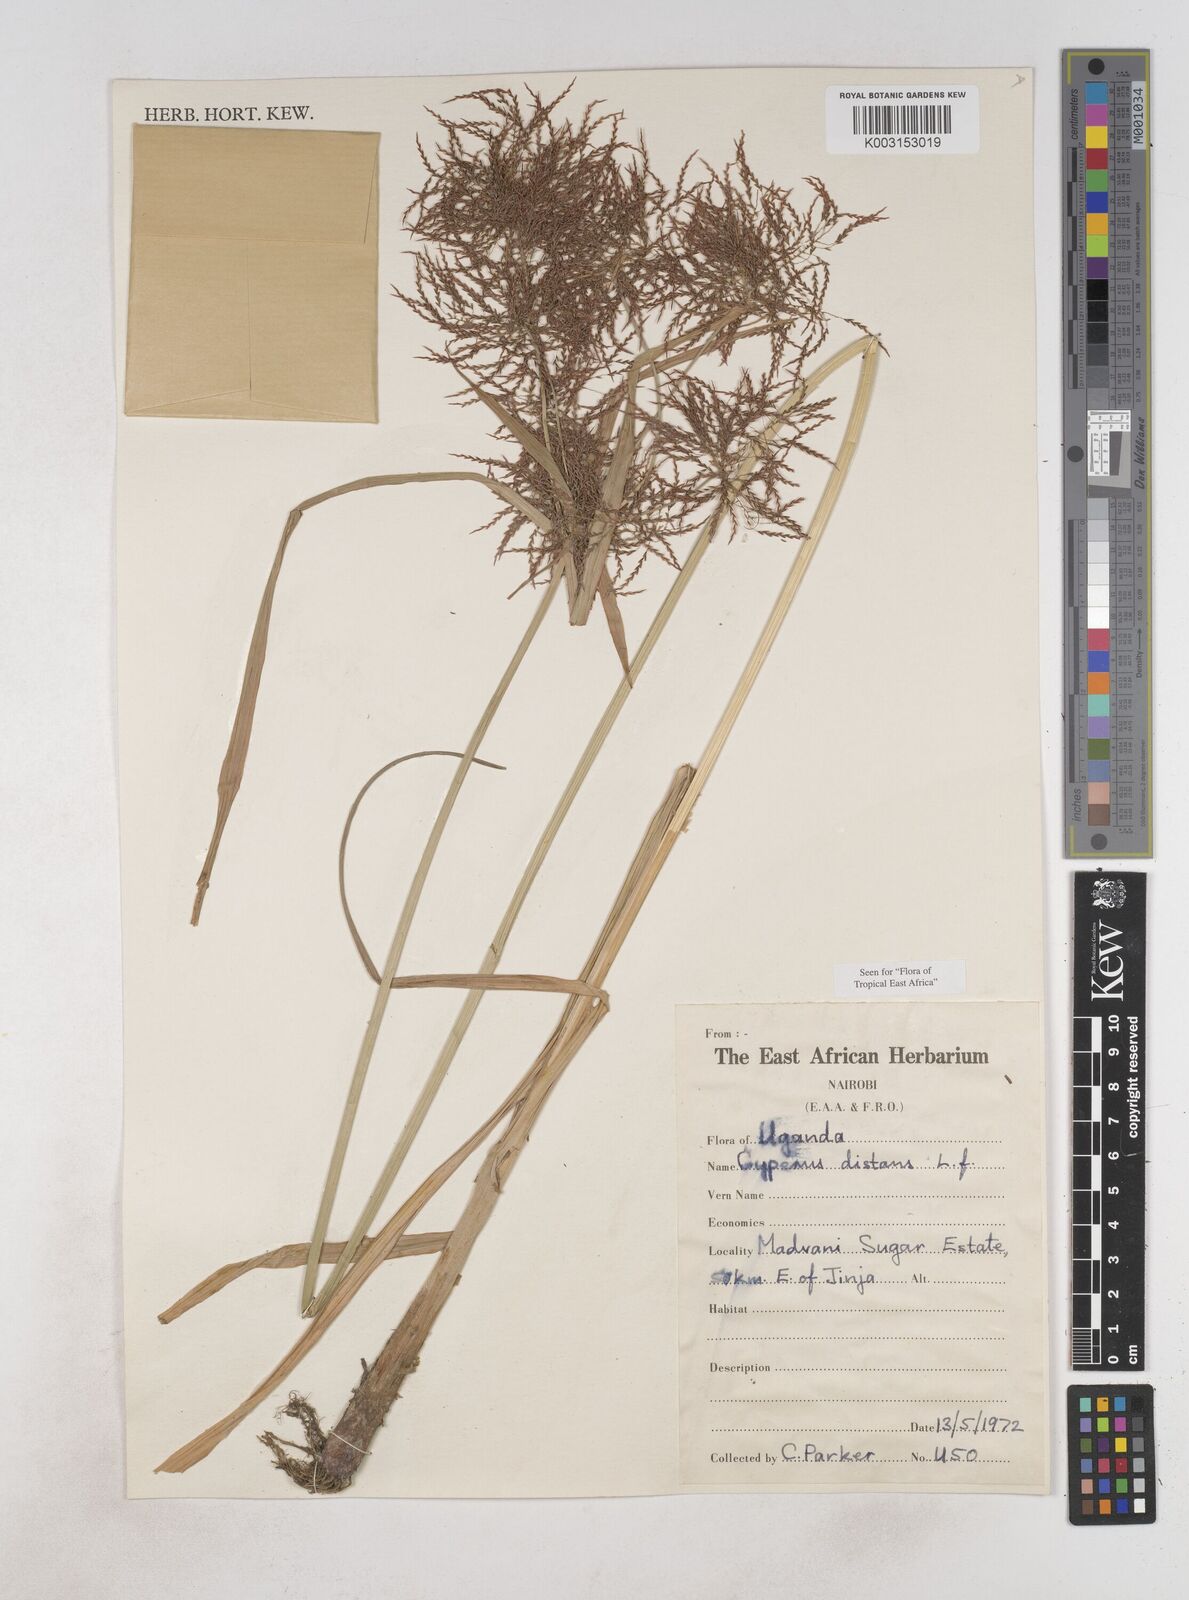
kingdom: Plantae
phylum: Tracheophyta
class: Liliopsida
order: Poales
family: Cyperaceae
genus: Cyperus
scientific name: Cyperus distans
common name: Slender cyperus
